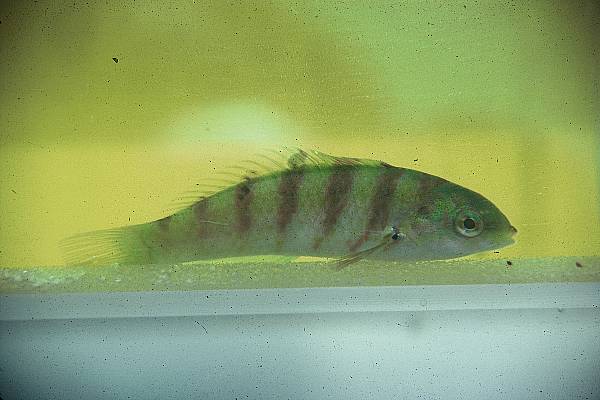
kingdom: Animalia
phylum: Chordata
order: Perciformes
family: Labridae
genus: Thalassoma
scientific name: Thalassoma hardwicke
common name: Sixbar wrasse
